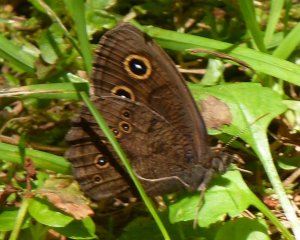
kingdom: Animalia
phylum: Arthropoda
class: Insecta
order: Lepidoptera
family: Nymphalidae
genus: Cercyonis
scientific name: Cercyonis pegala
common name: Common Wood-Nymph
